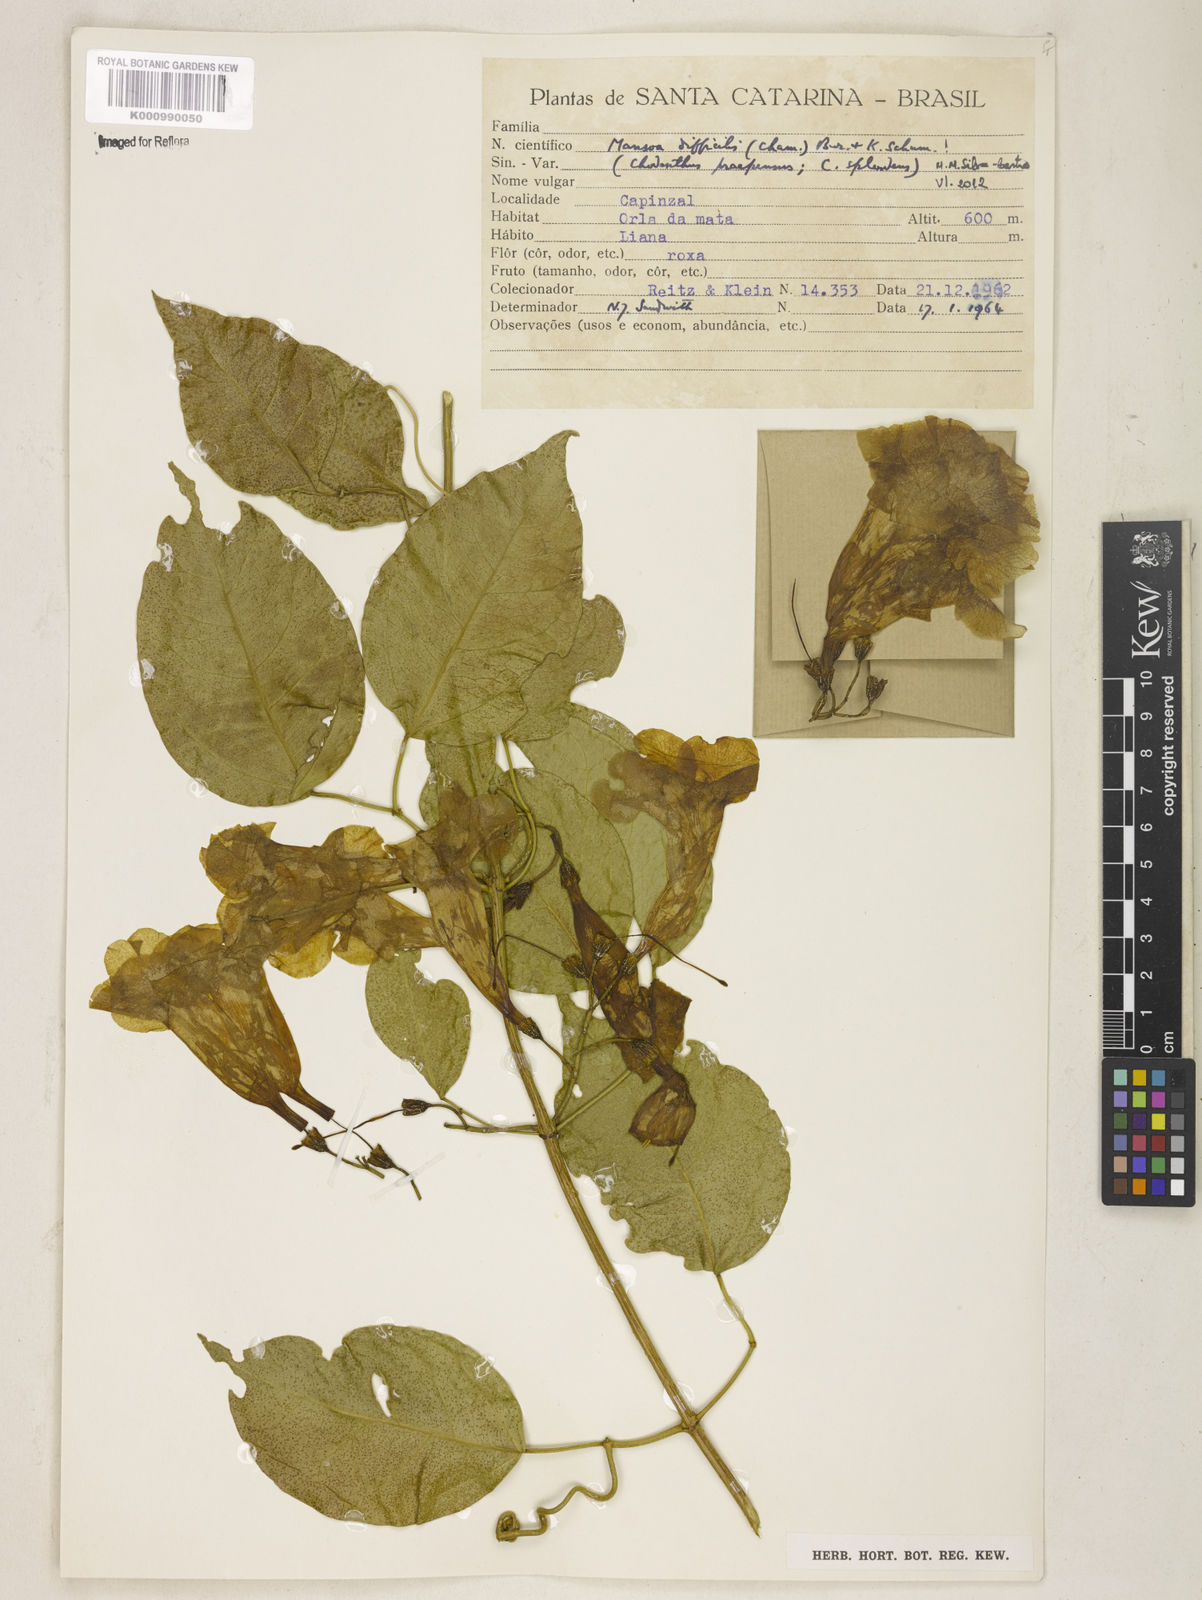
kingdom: Plantae
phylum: Tracheophyta
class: Magnoliopsida
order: Lamiales
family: Bignoniaceae
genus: Mansoa
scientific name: Mansoa difficilis
